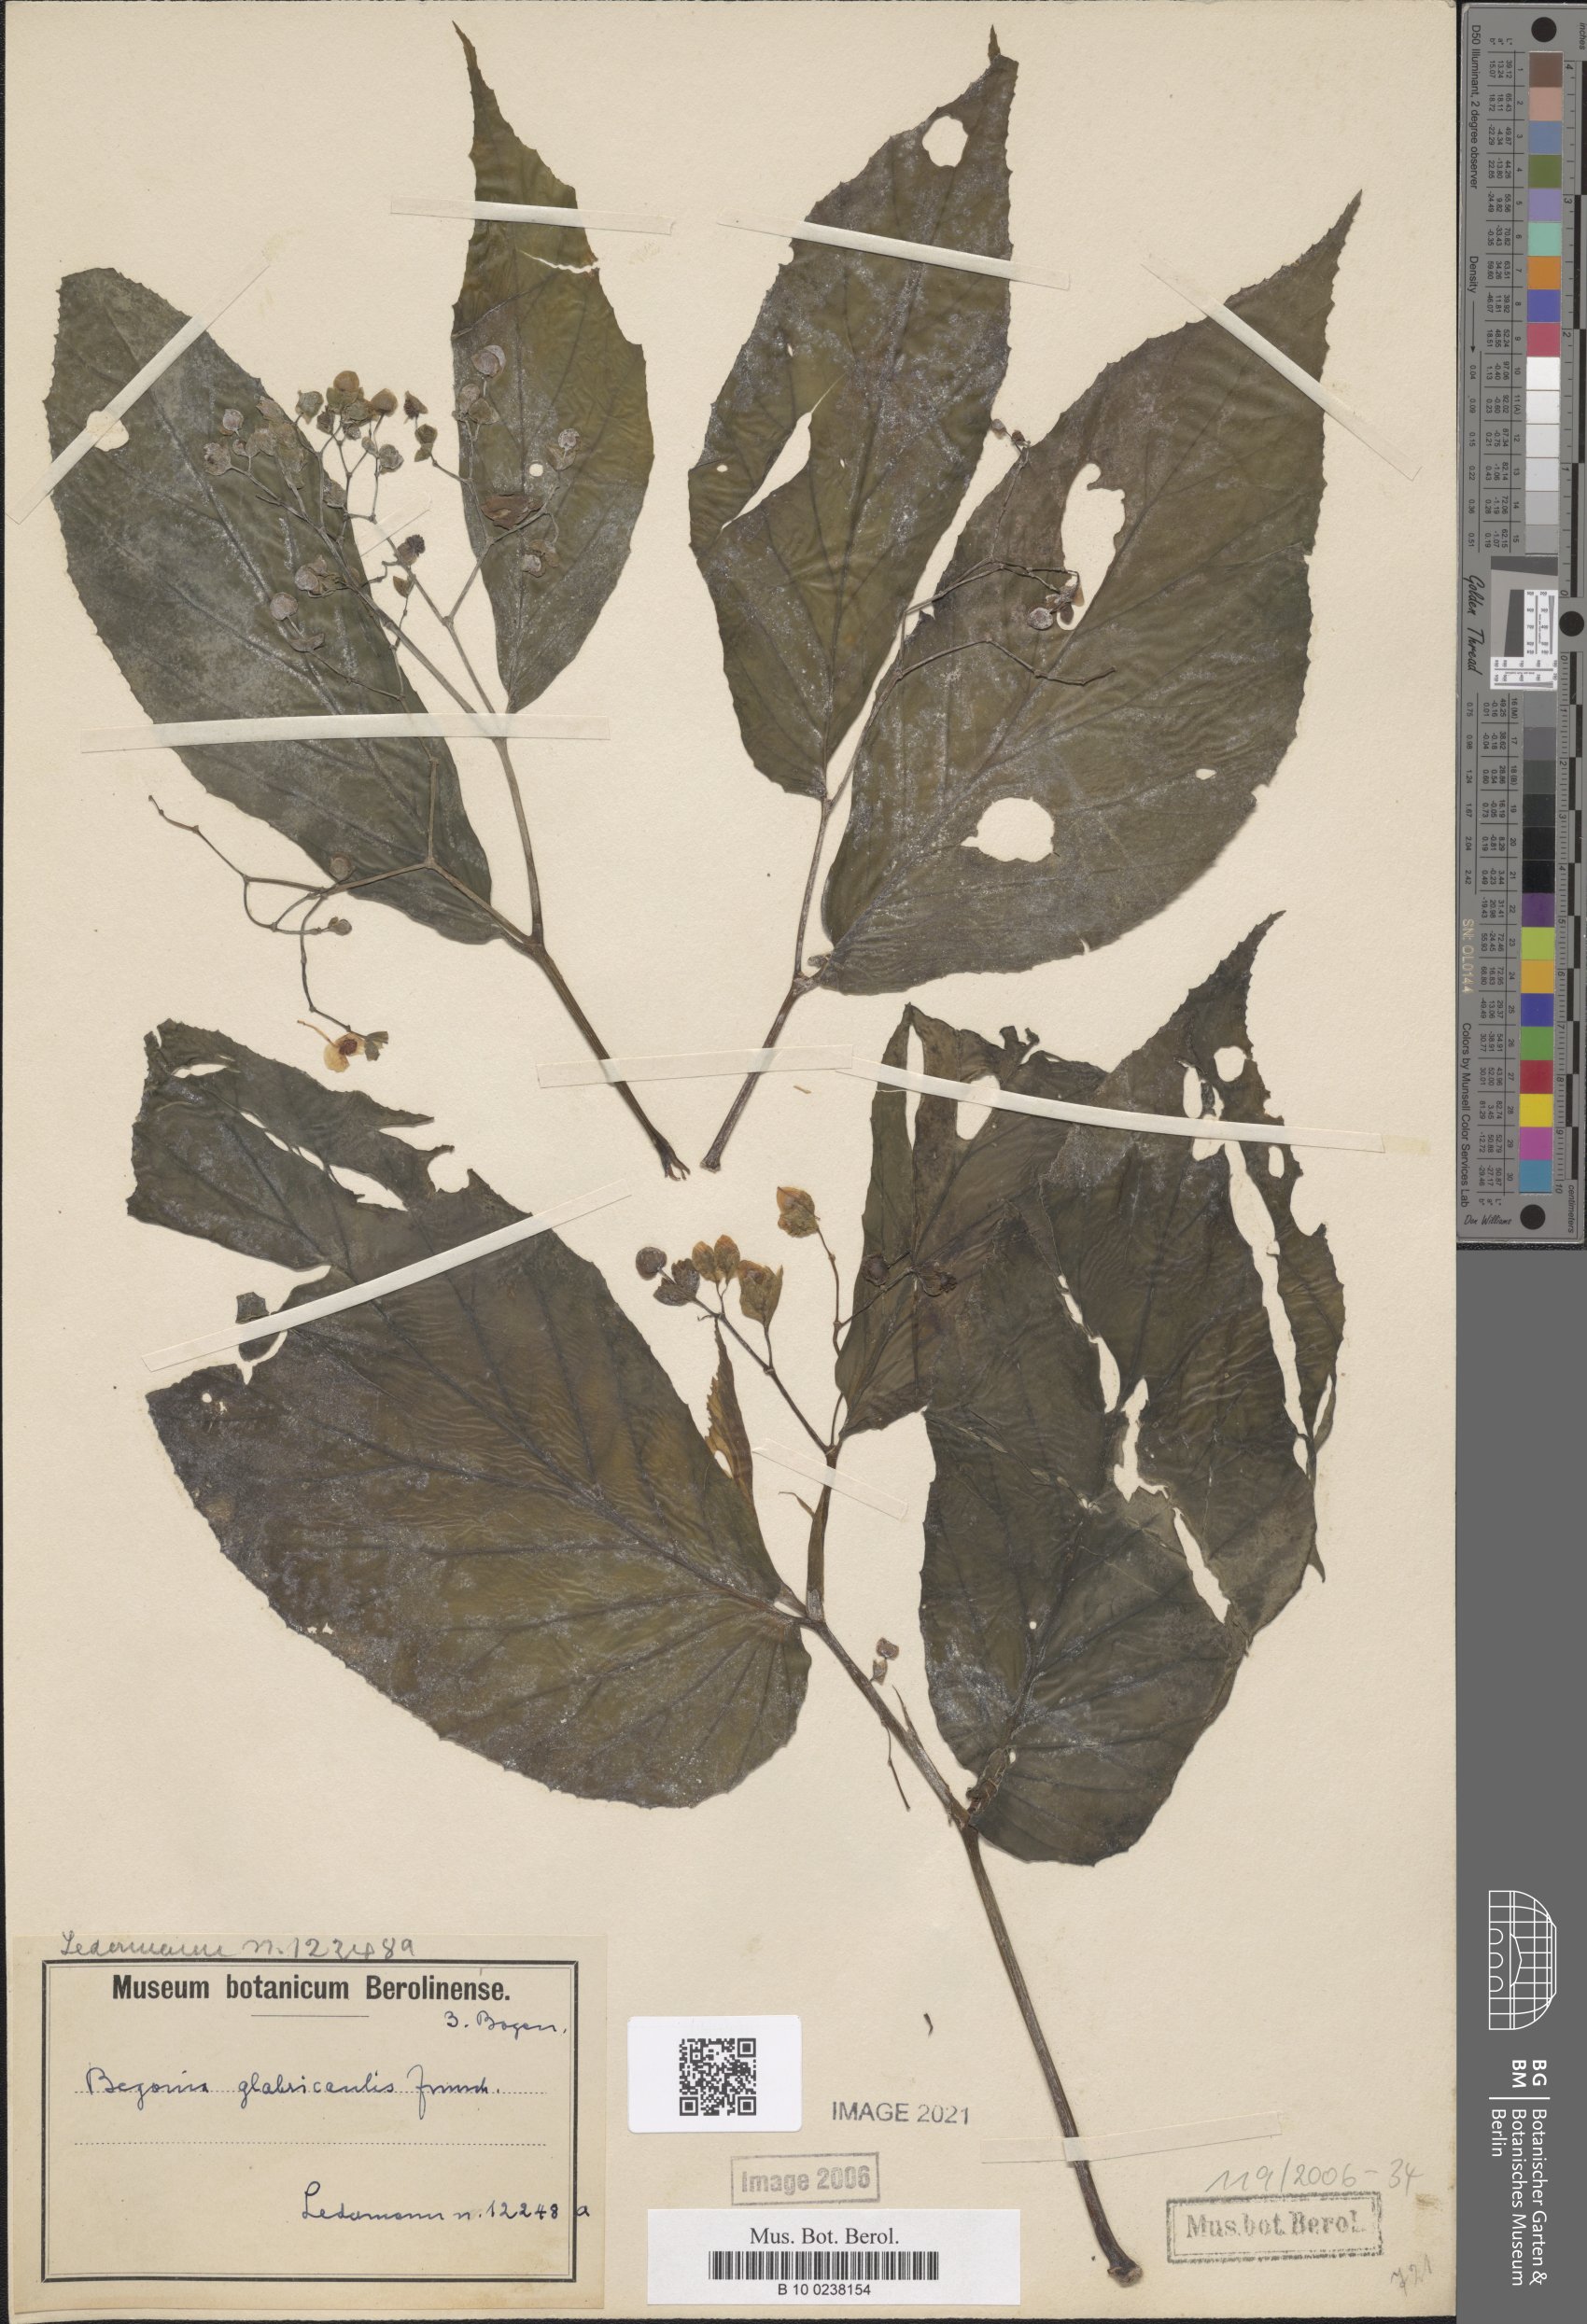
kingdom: Plantae
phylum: Tracheophyta
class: Magnoliopsida
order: Cucurbitales
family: Begoniaceae
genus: Begonia
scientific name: Begonia glabricaulis
